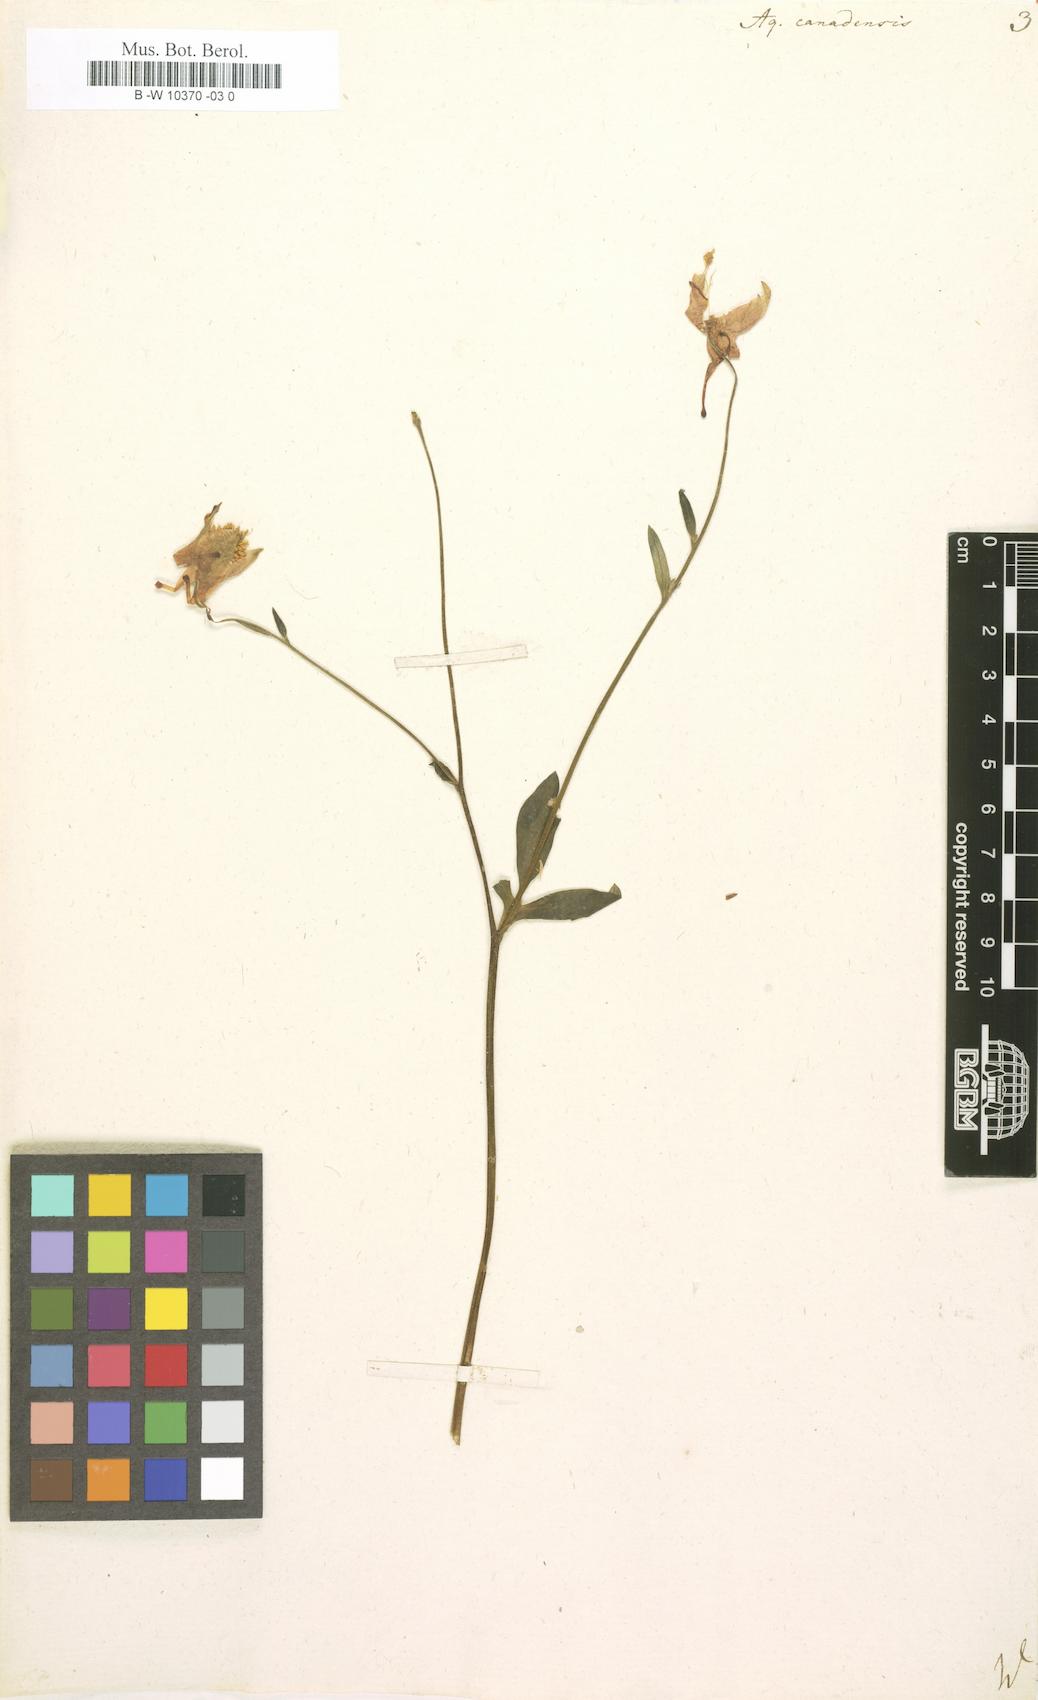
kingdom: Plantae
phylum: Tracheophyta
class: Magnoliopsida
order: Ranunculales
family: Ranunculaceae
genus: Aquilegia
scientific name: Aquilegia canadensis
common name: American columbine
